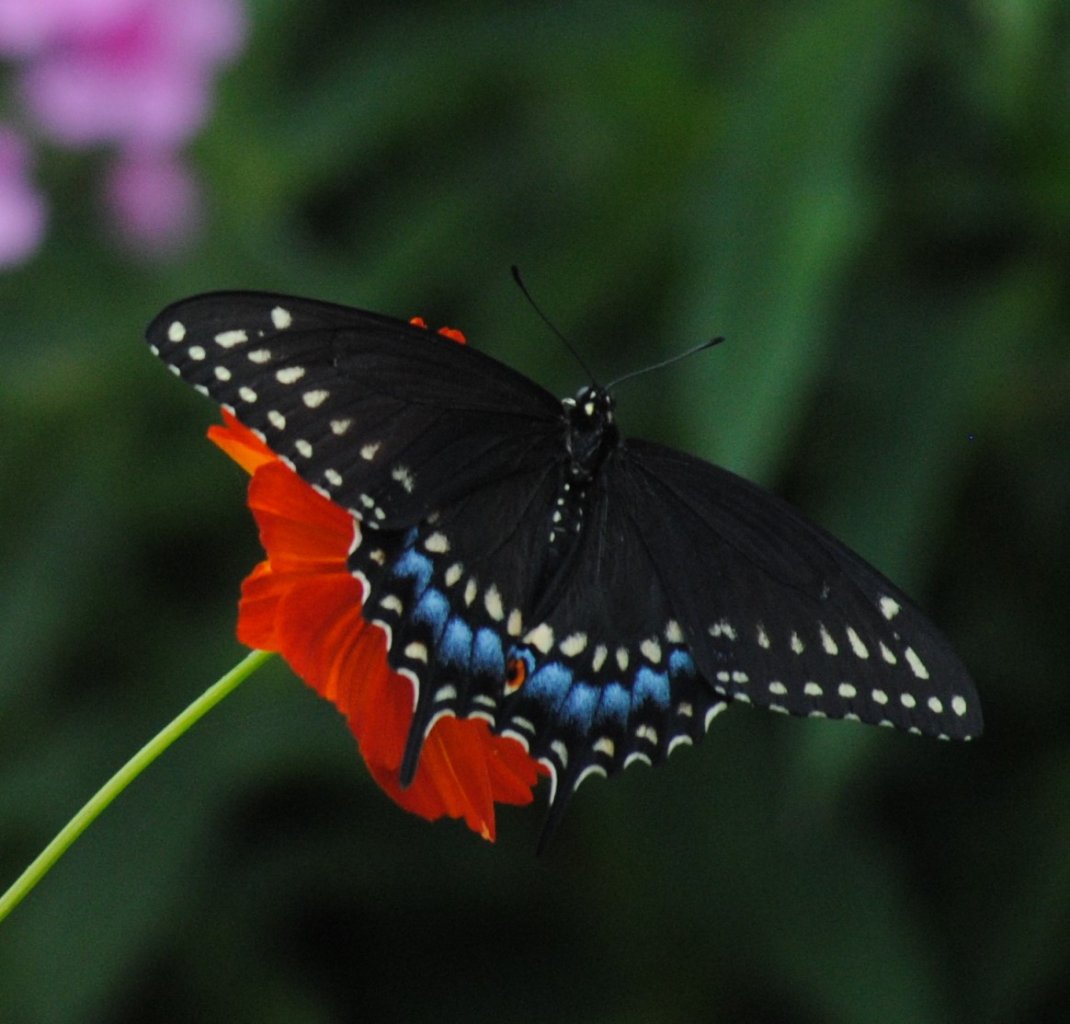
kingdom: Animalia
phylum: Arthropoda
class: Insecta
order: Lepidoptera
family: Papilionidae
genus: Papilio
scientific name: Papilio polyxenes
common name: Black Swallowtail
